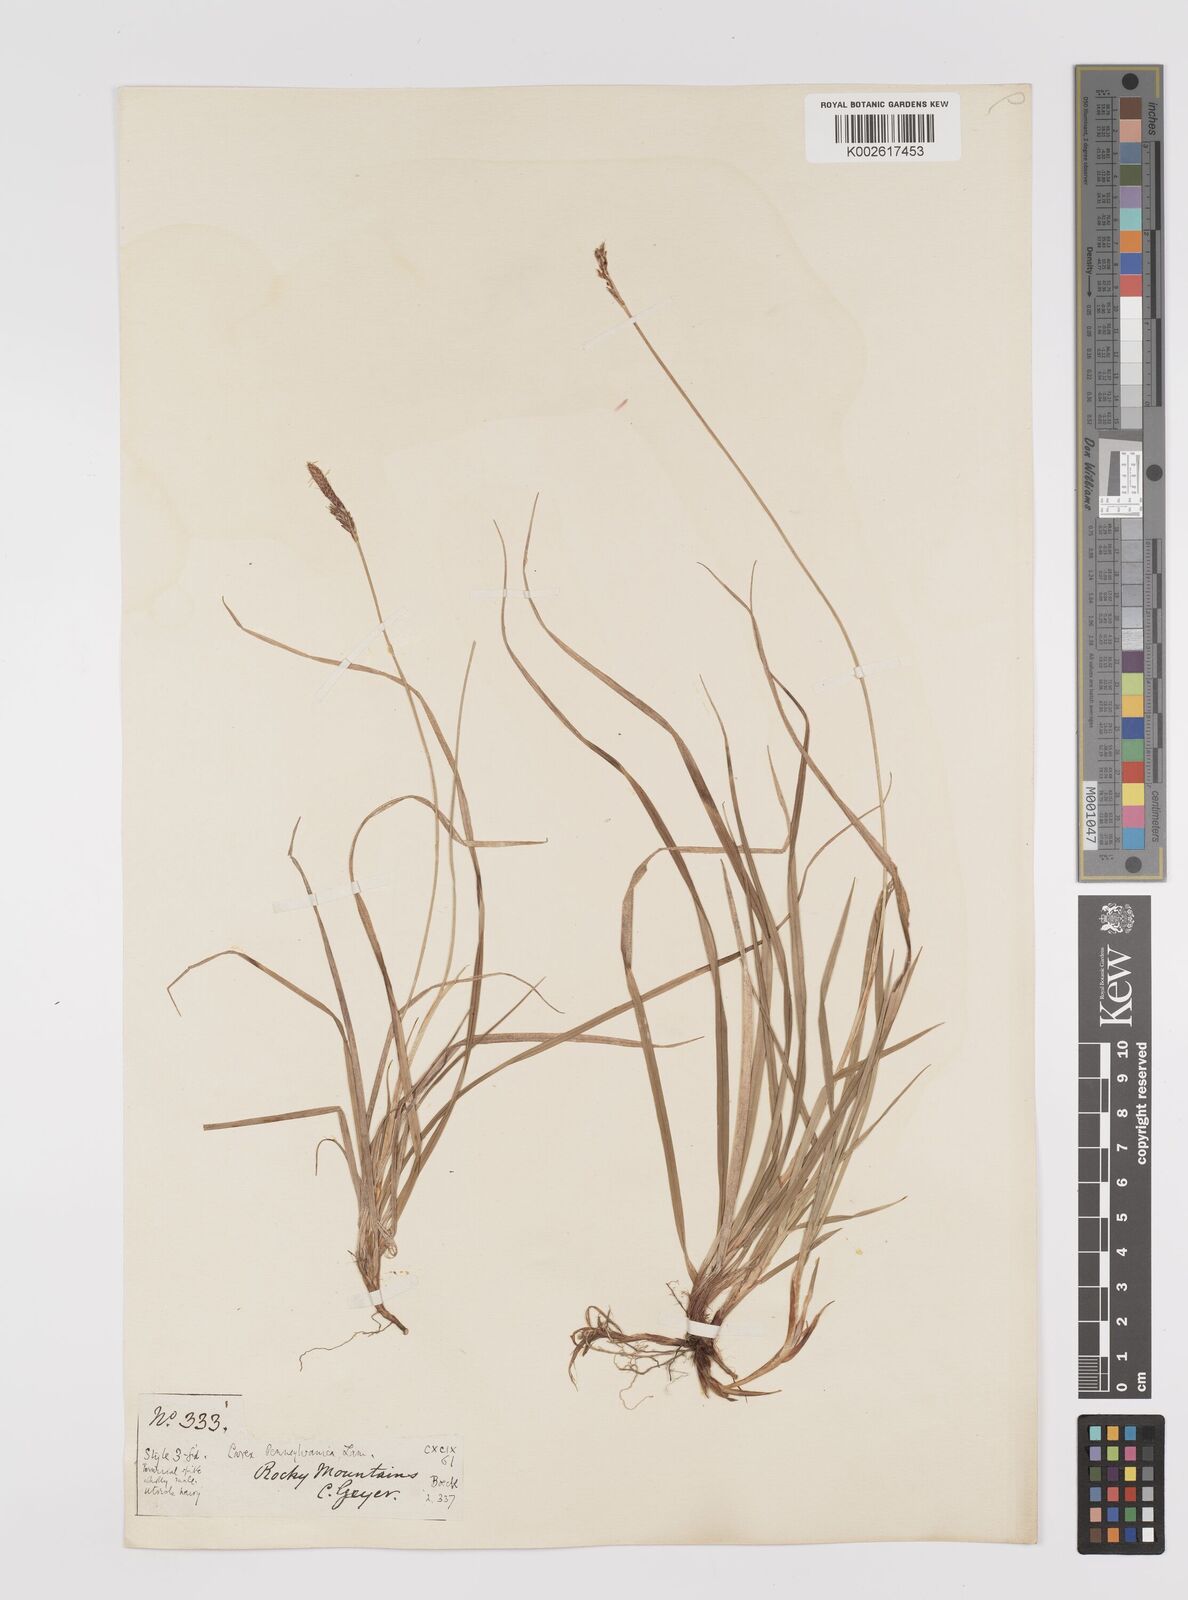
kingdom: Plantae
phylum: Tracheophyta
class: Liliopsida
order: Poales
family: Cyperaceae
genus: Carex
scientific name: Carex pensylvanica
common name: Common oak sedge
